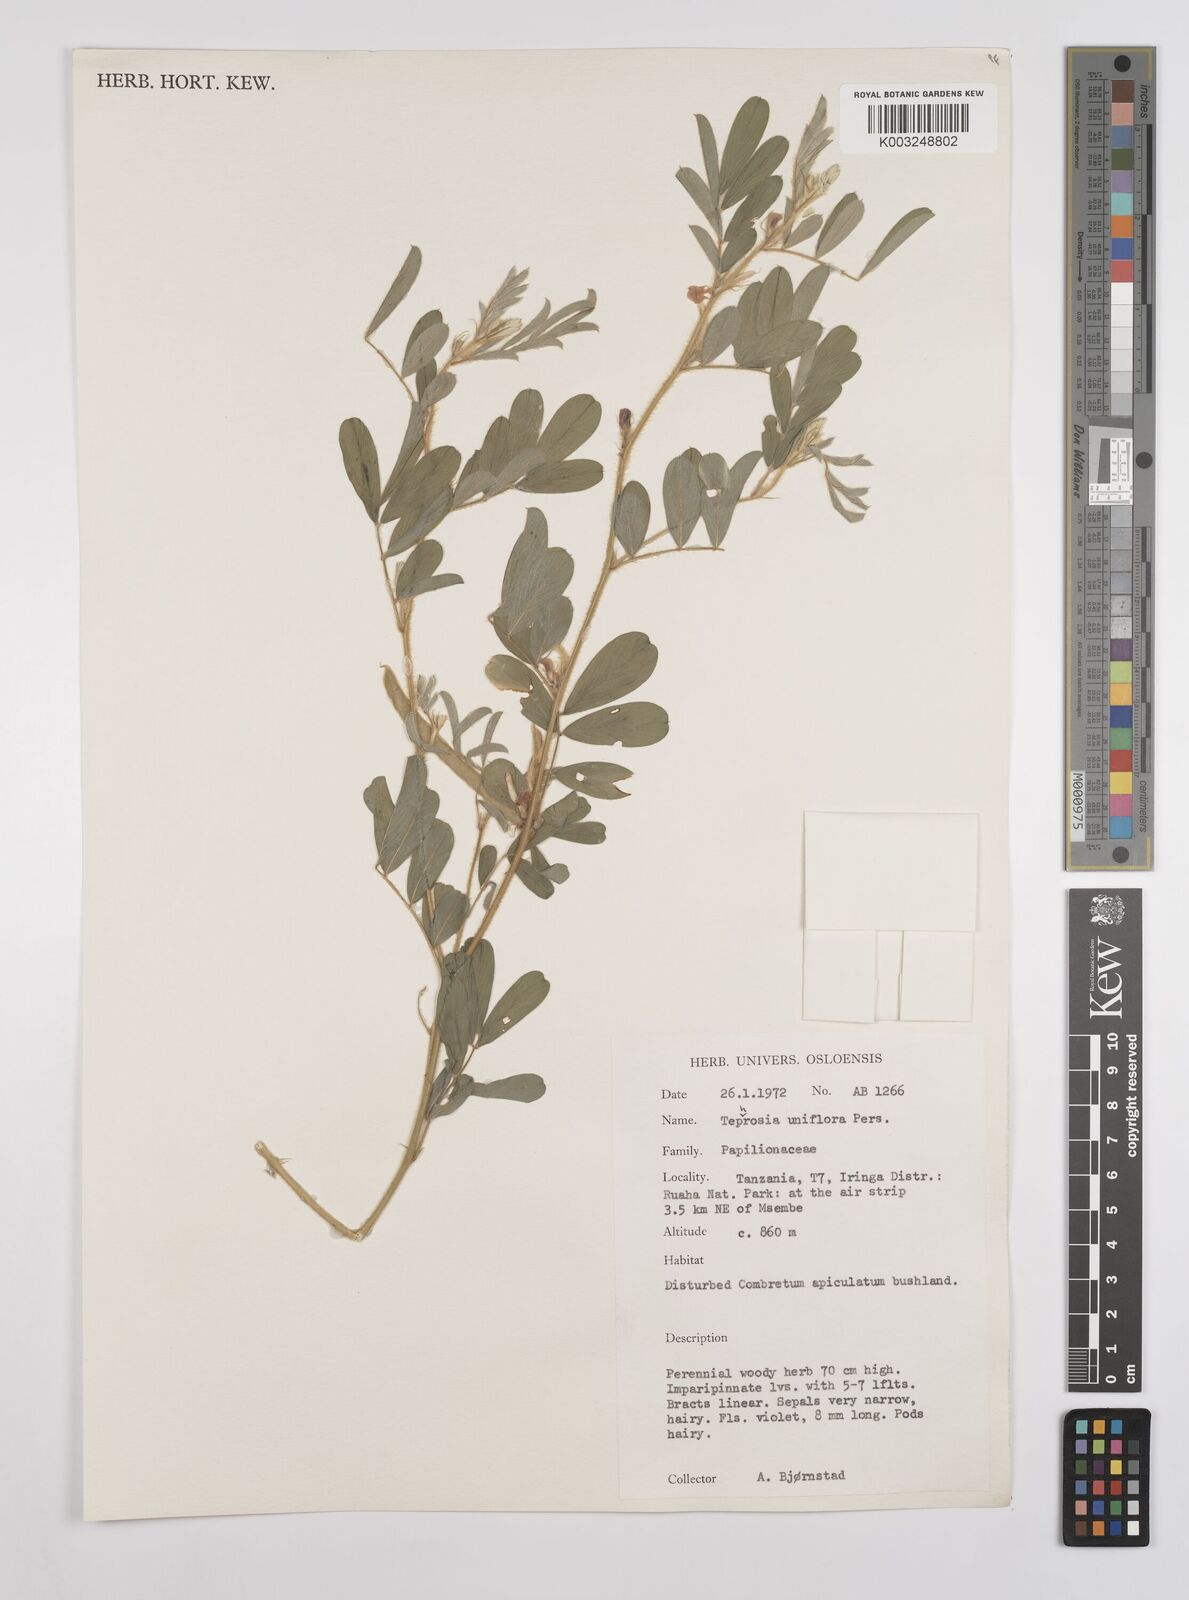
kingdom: Plantae
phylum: Tracheophyta
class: Magnoliopsida
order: Fabales
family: Fabaceae
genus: Tephrosia
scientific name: Tephrosia uniflora
